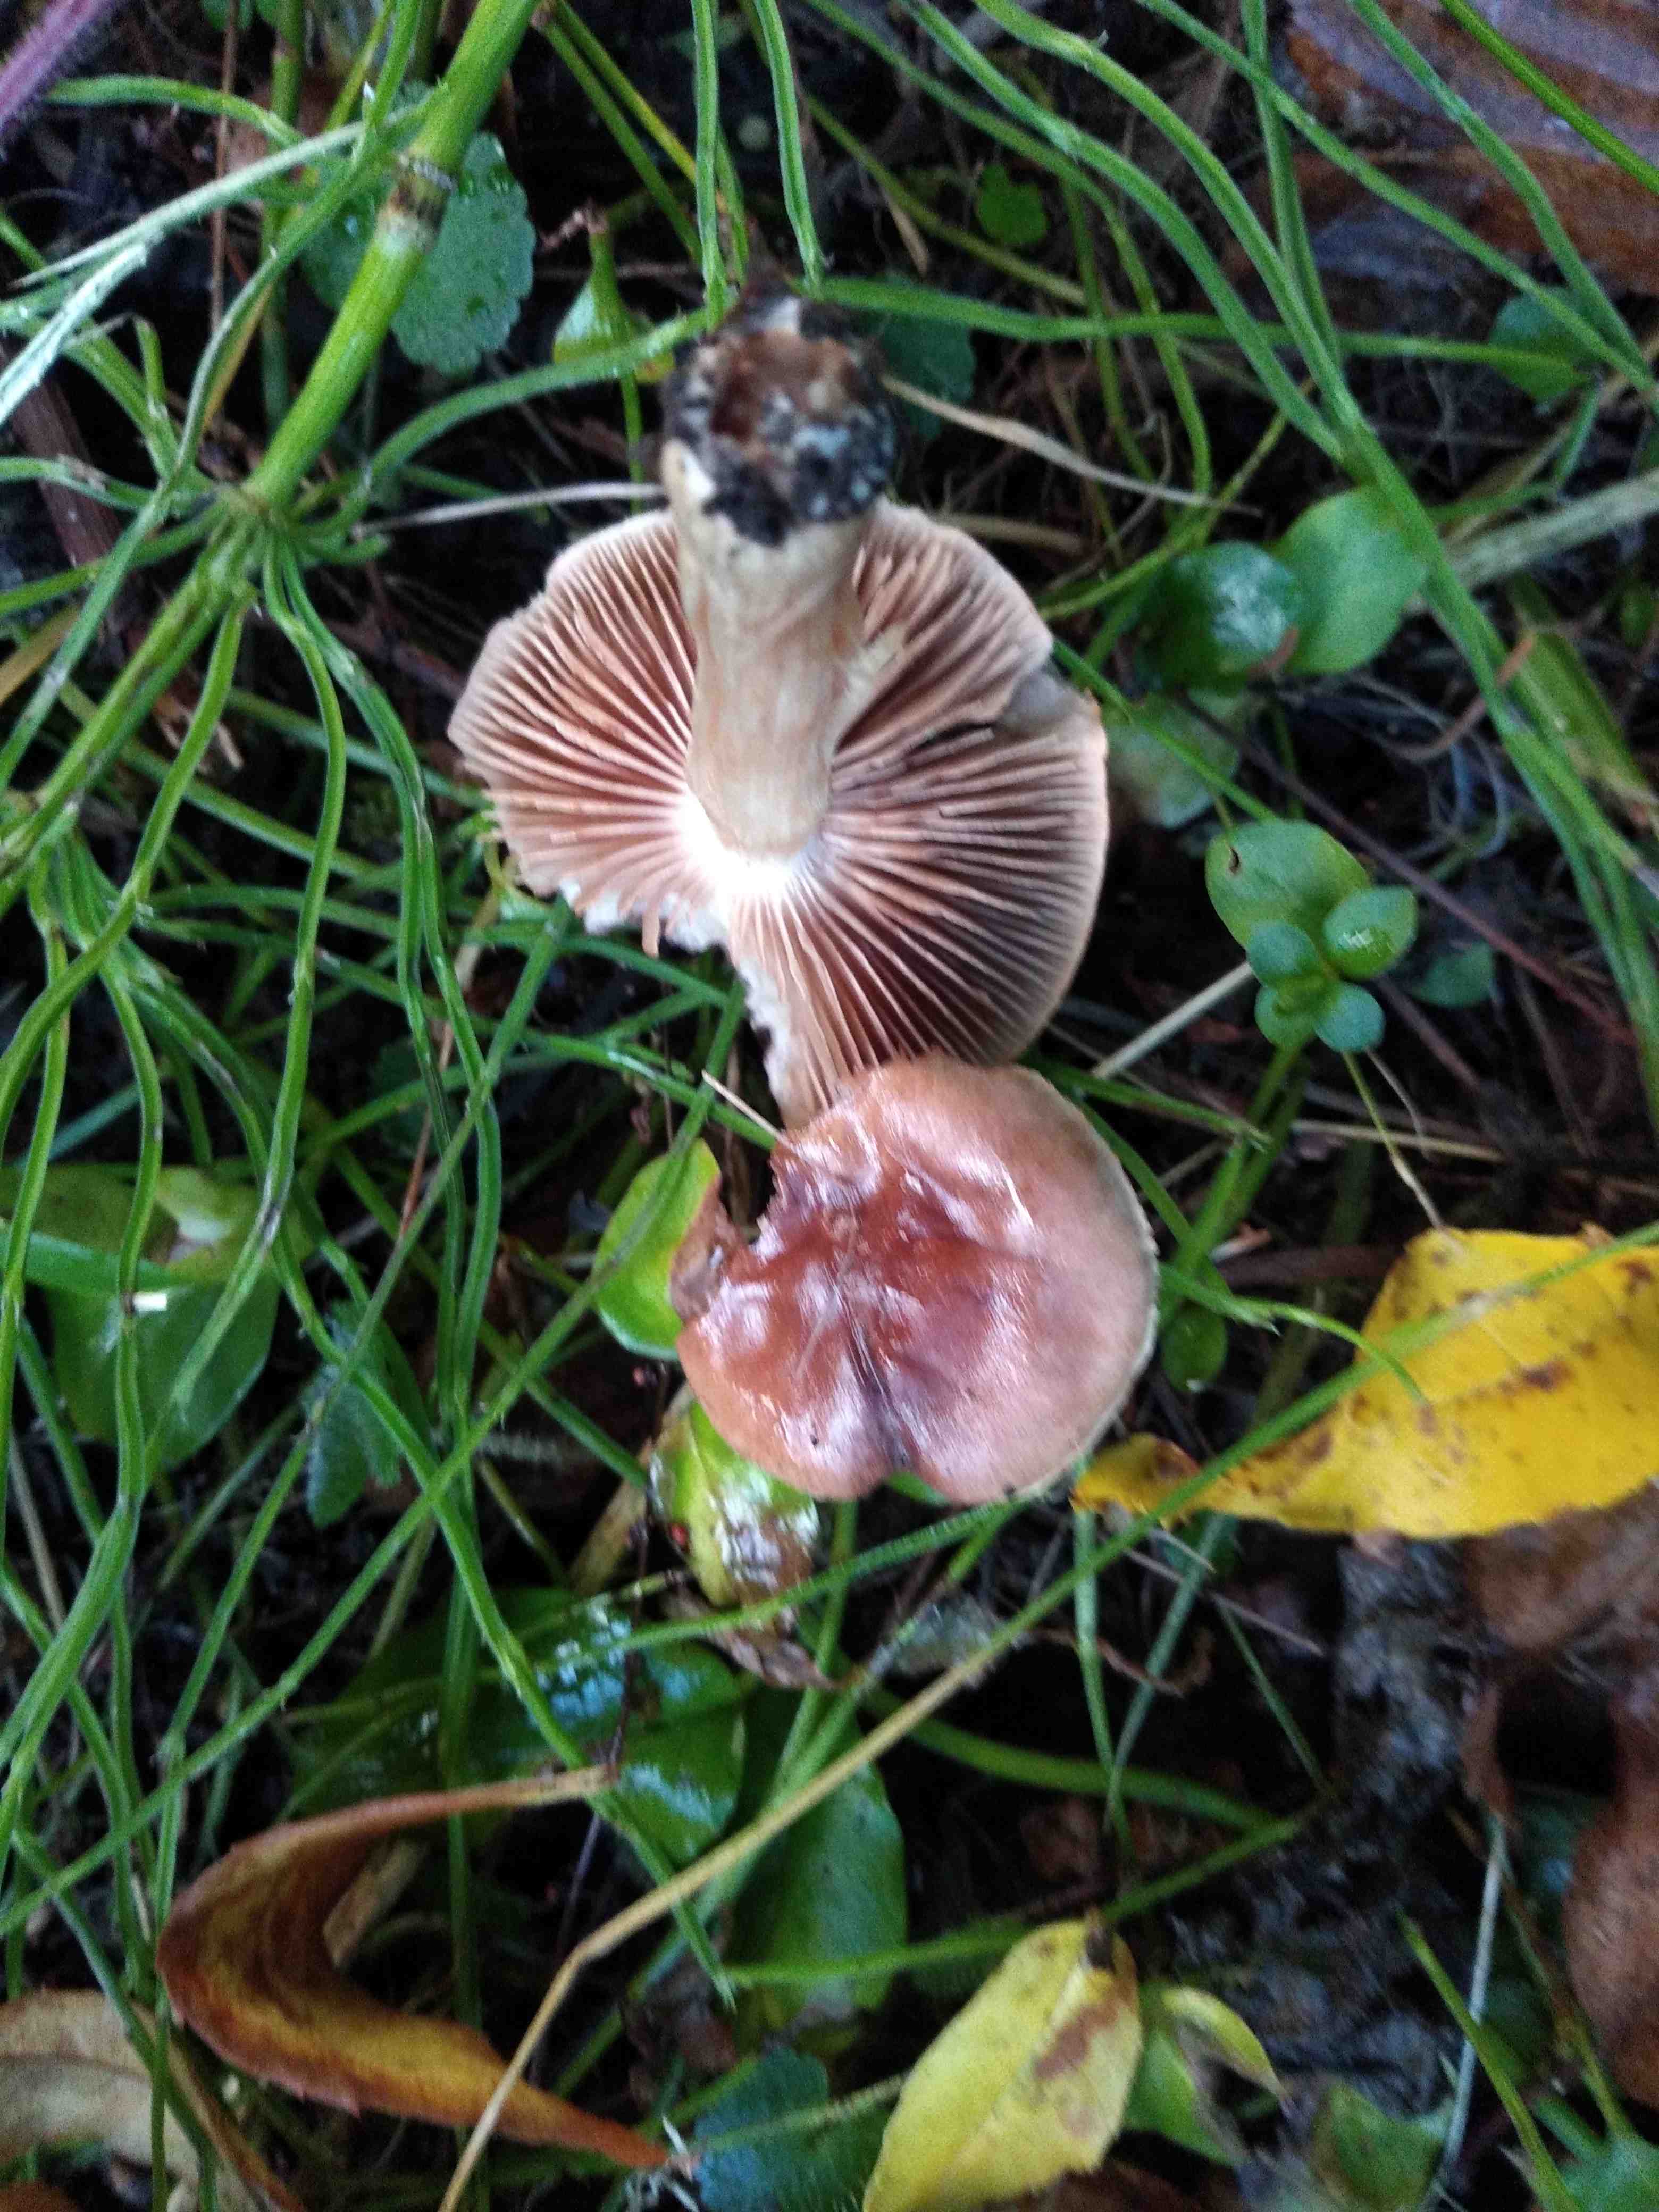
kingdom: Fungi
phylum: Basidiomycota
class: Agaricomycetes
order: Agaricales
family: Hymenogastraceae
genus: Hebeloma
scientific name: Hebeloma theobrominum
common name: rødbrun tåreblad
